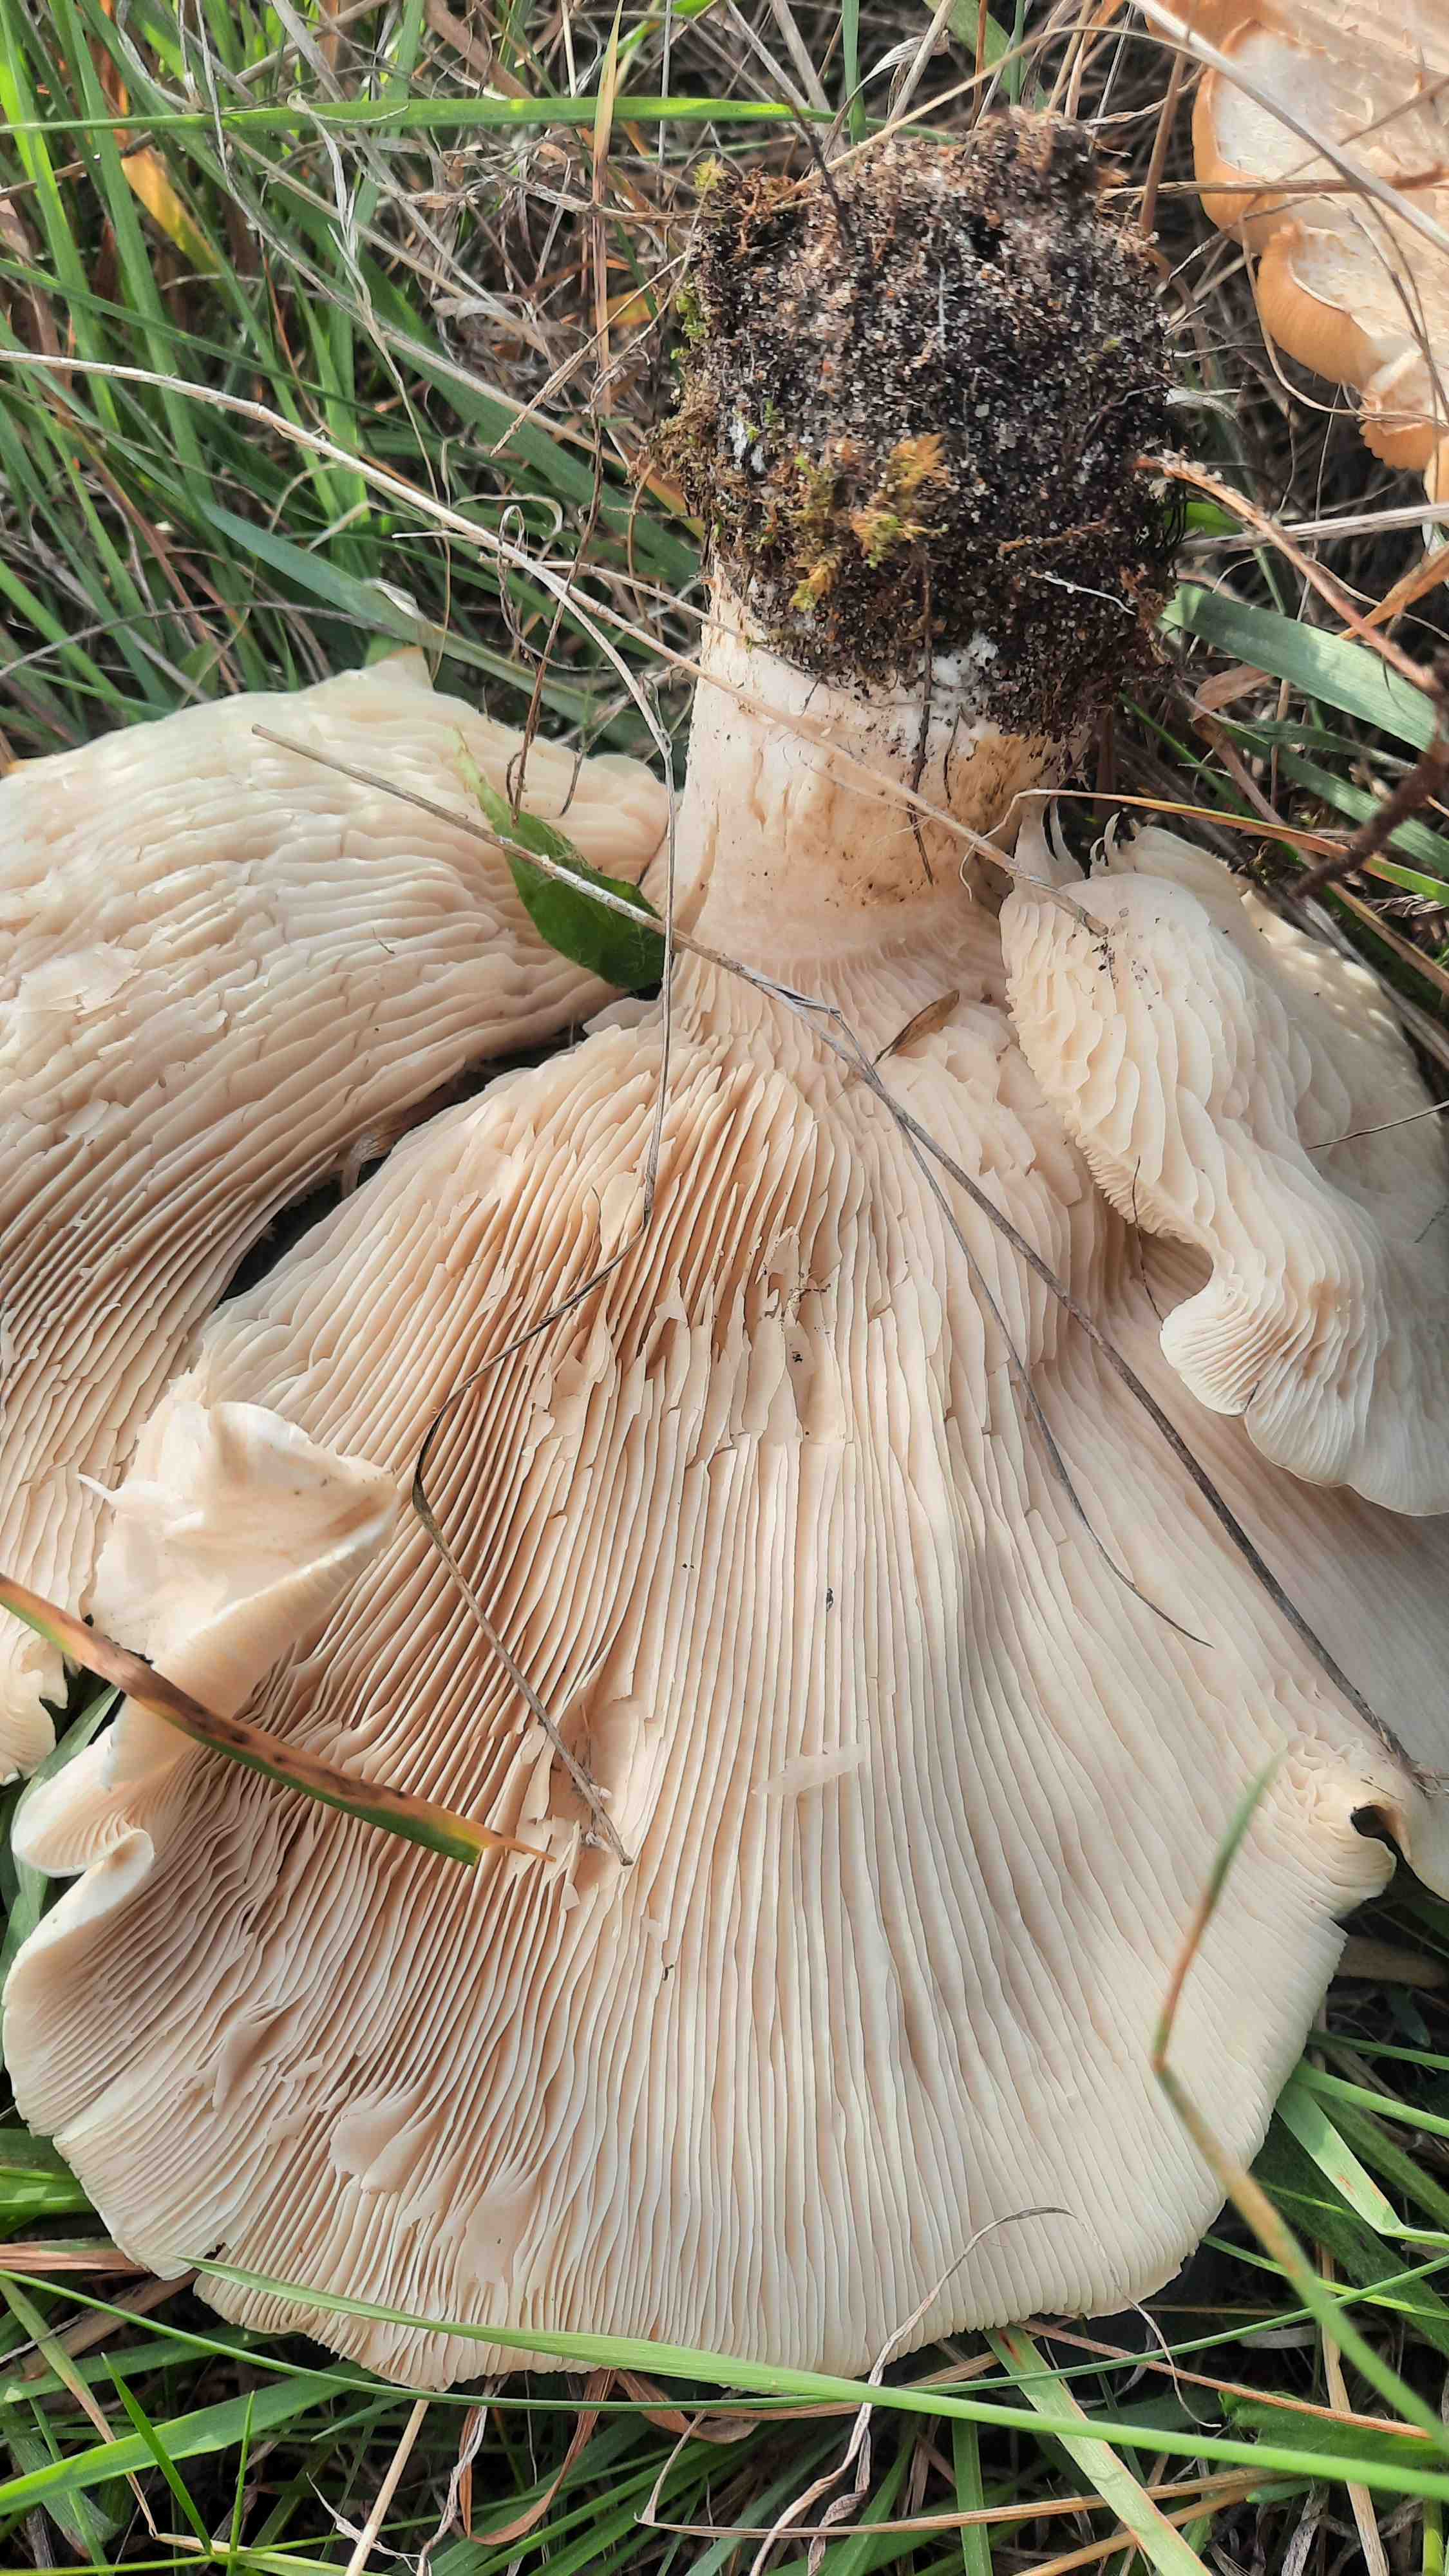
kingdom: Fungi
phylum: Basidiomycota
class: Agaricomycetes
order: Agaricales
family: Tricholomataceae
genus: Aspropaxillus
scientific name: Aspropaxillus giganteus
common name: kæmpe-tragtridderhat
